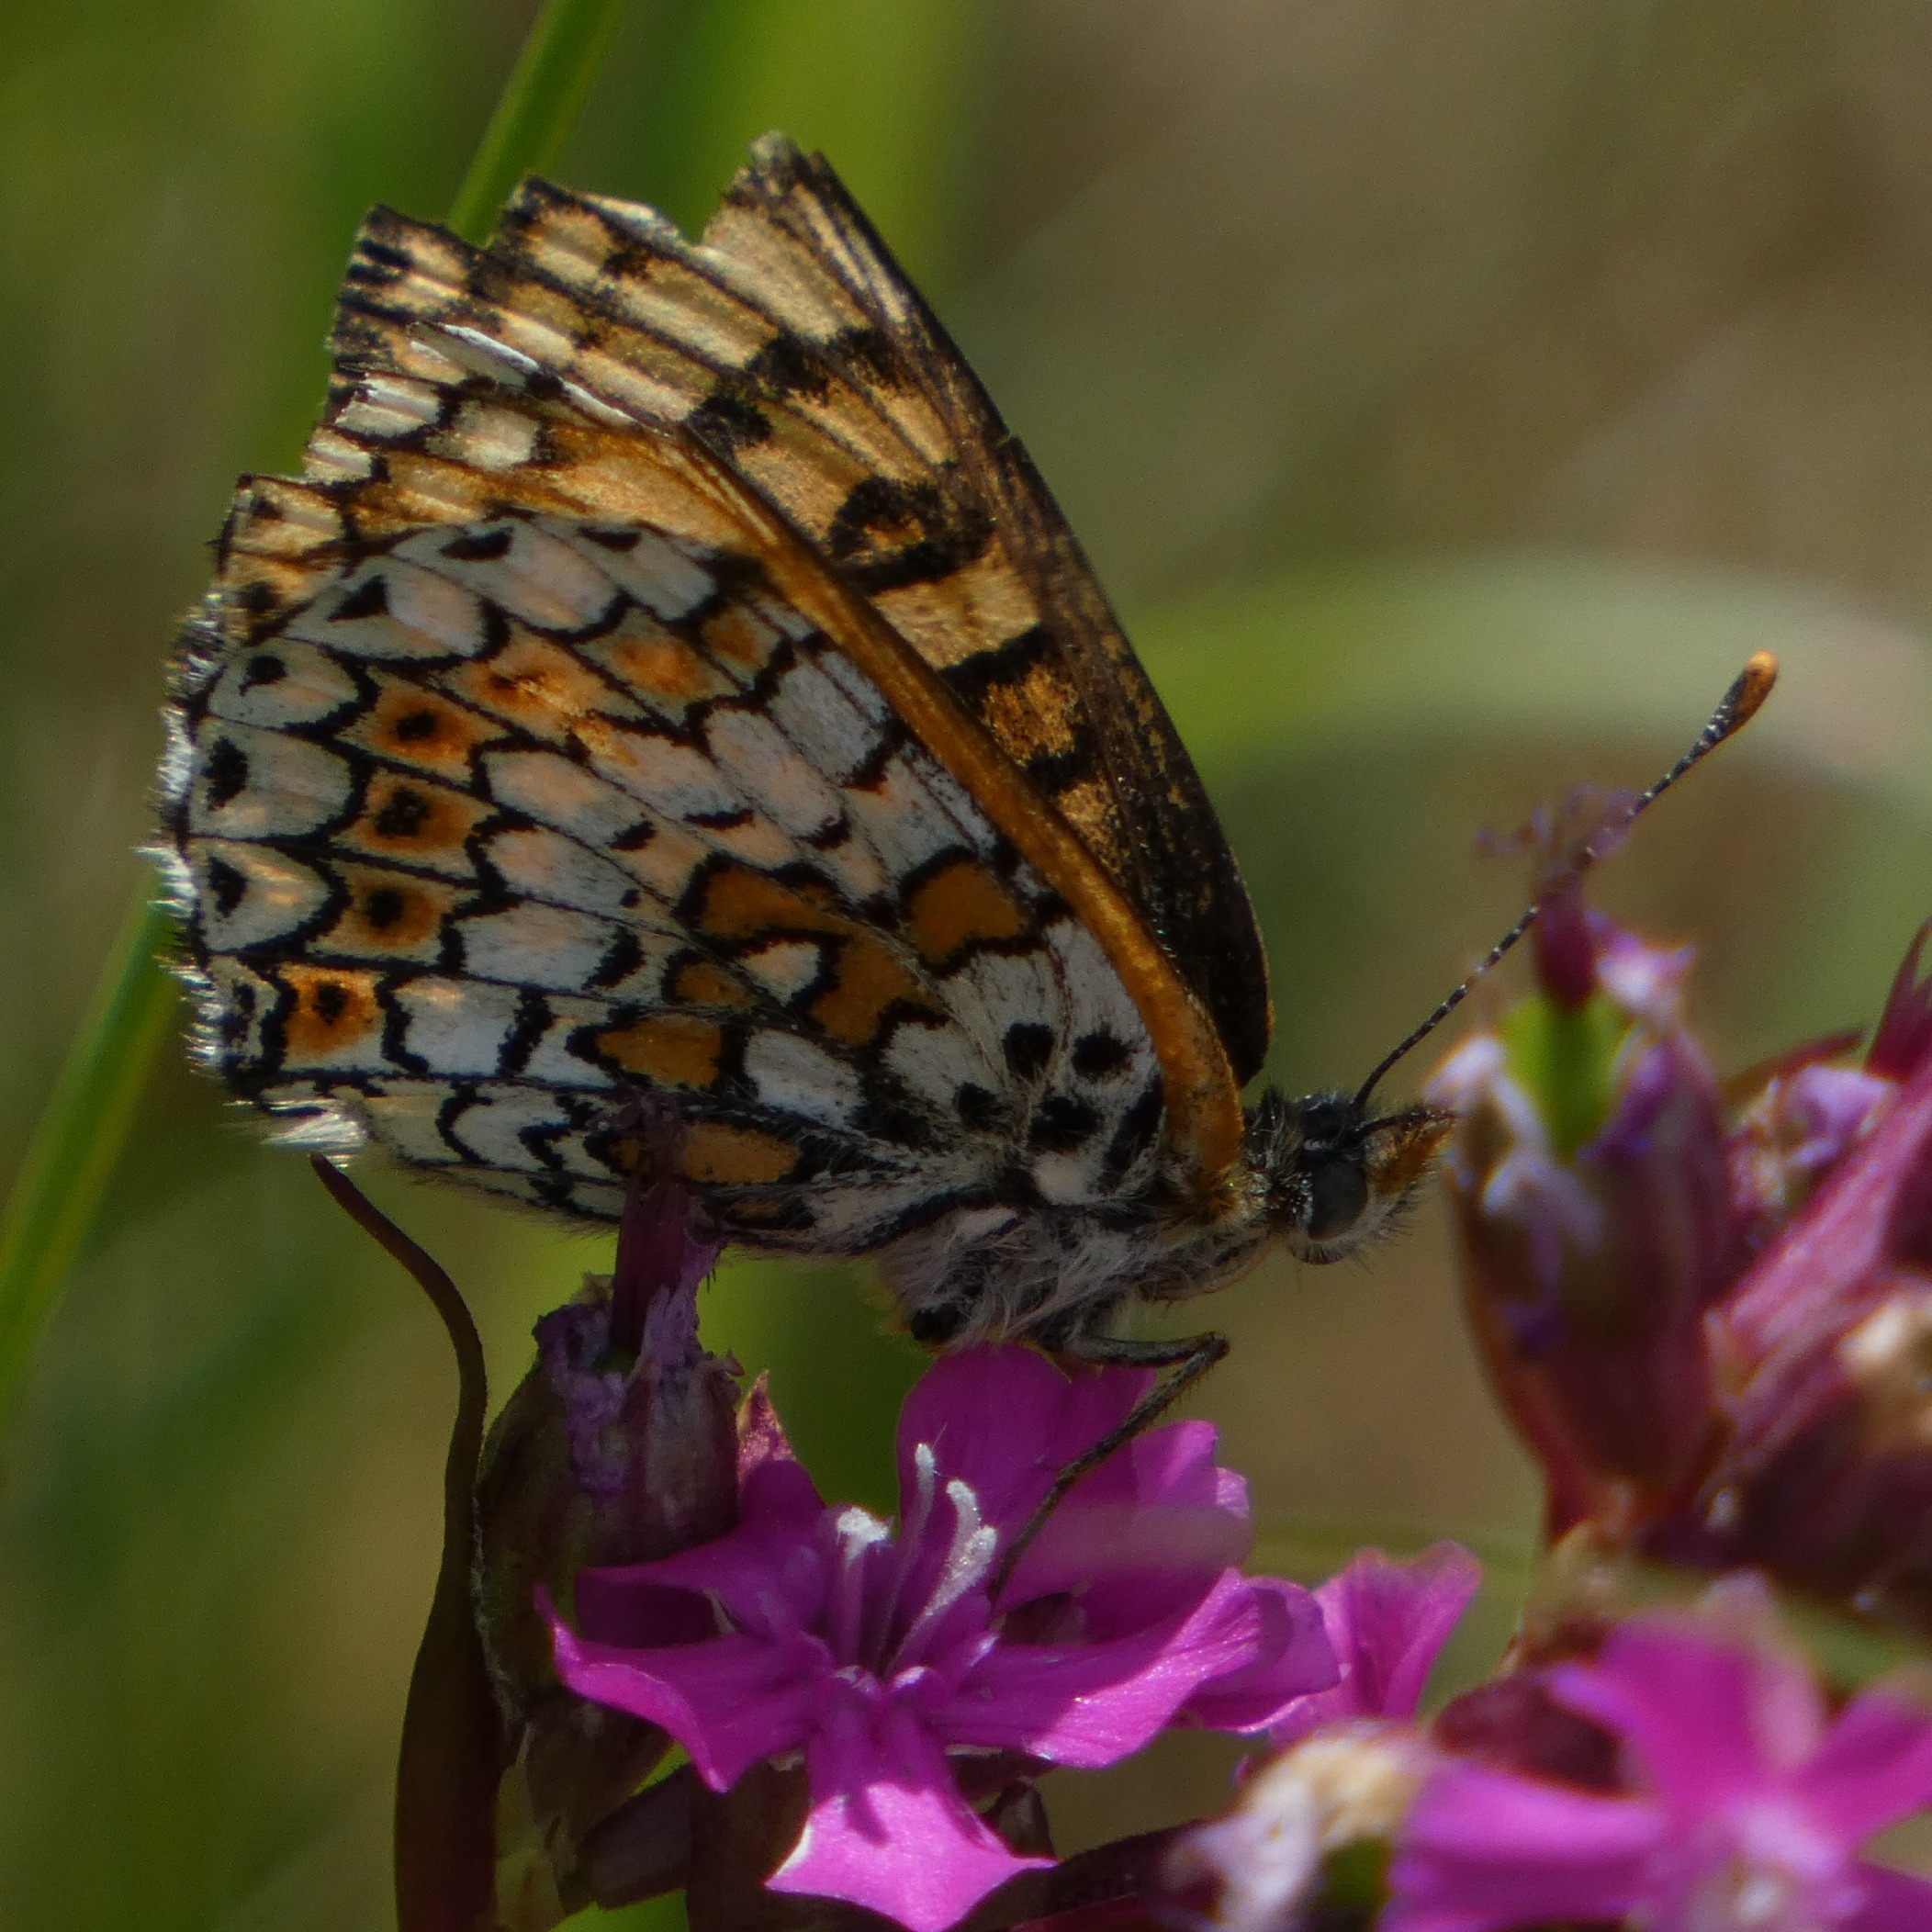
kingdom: Animalia
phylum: Arthropoda
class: Insecta
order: Lepidoptera
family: Nymphalidae
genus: Melitaea
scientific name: Melitaea cinxia
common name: Okkergul pletvinge
